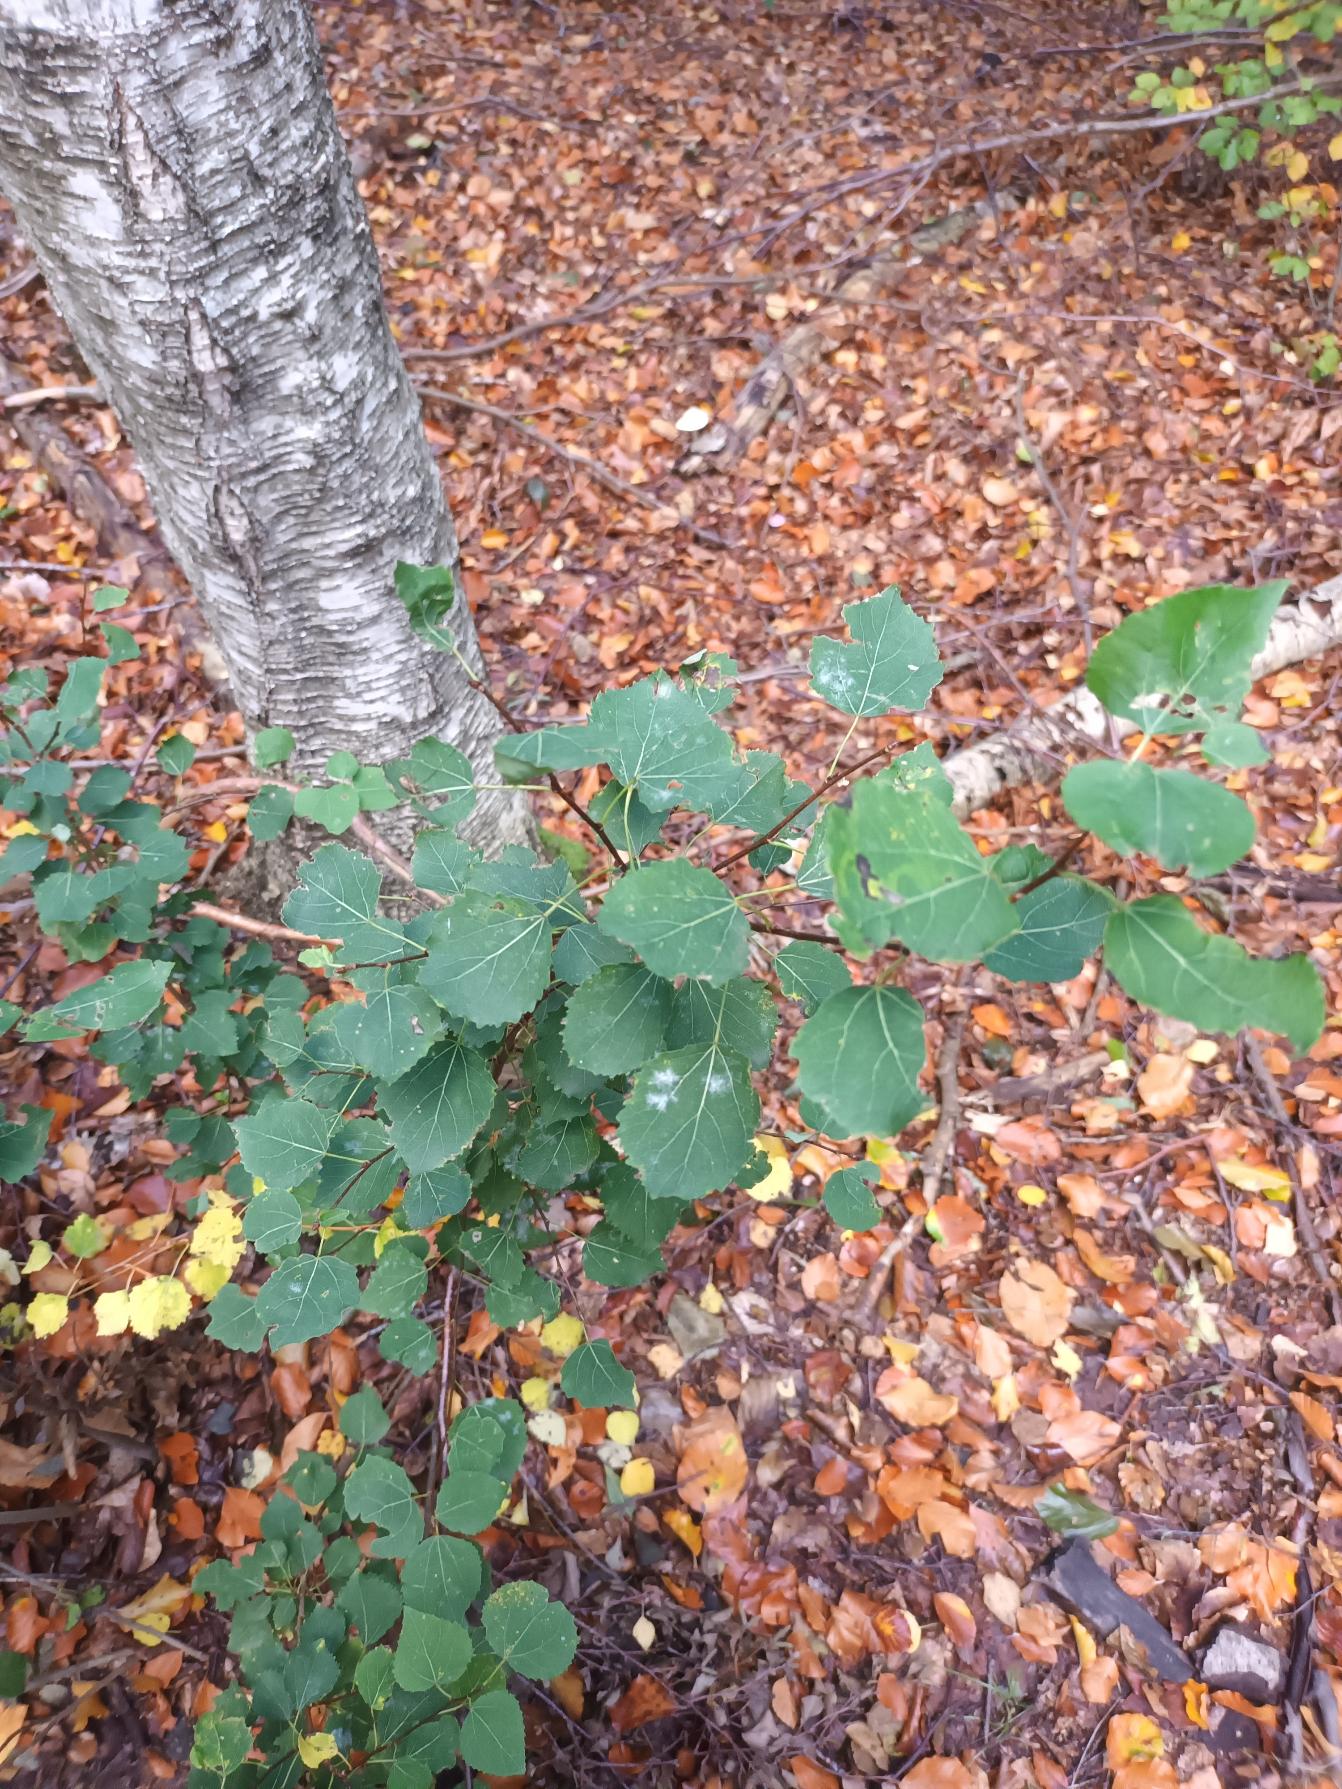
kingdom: Plantae
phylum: Tracheophyta
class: Magnoliopsida
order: Malpighiales
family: Salicaceae
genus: Populus
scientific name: Populus tremula
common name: Bævreasp
